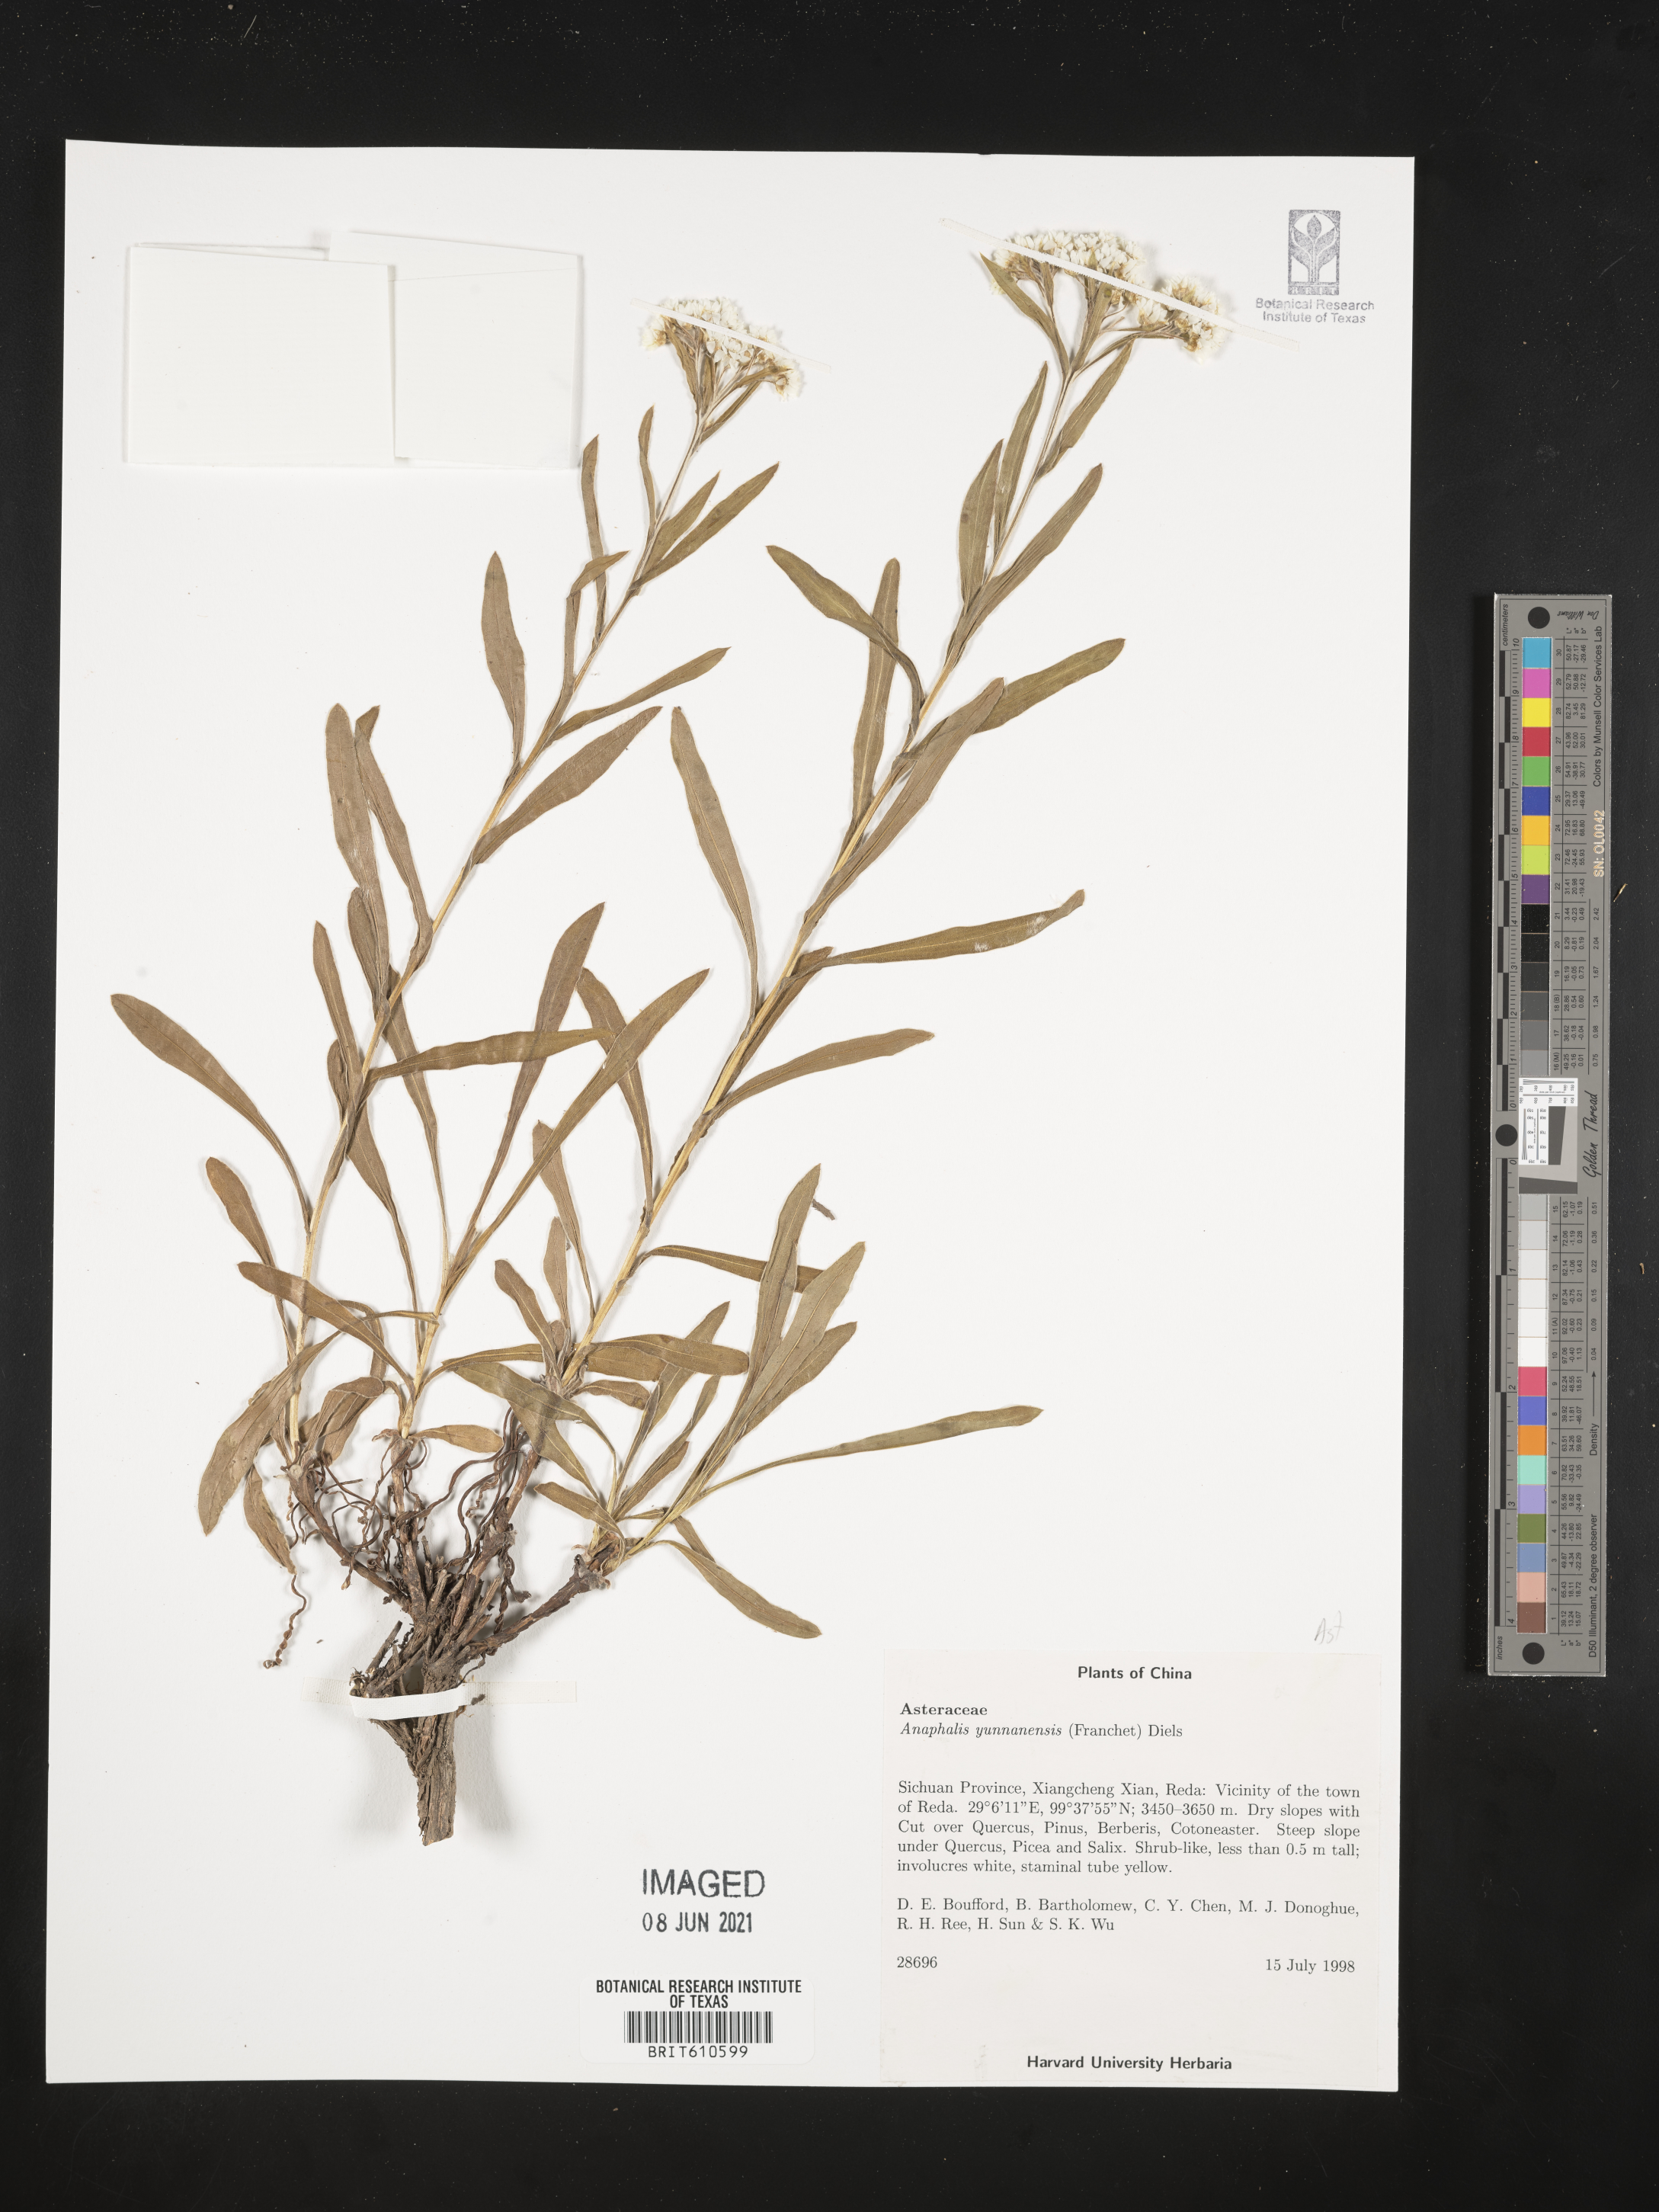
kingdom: Plantae
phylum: Tracheophyta
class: Magnoliopsida
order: Asterales
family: Asteraceae
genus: Anaphalis
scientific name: Anaphalis yunnanensis
